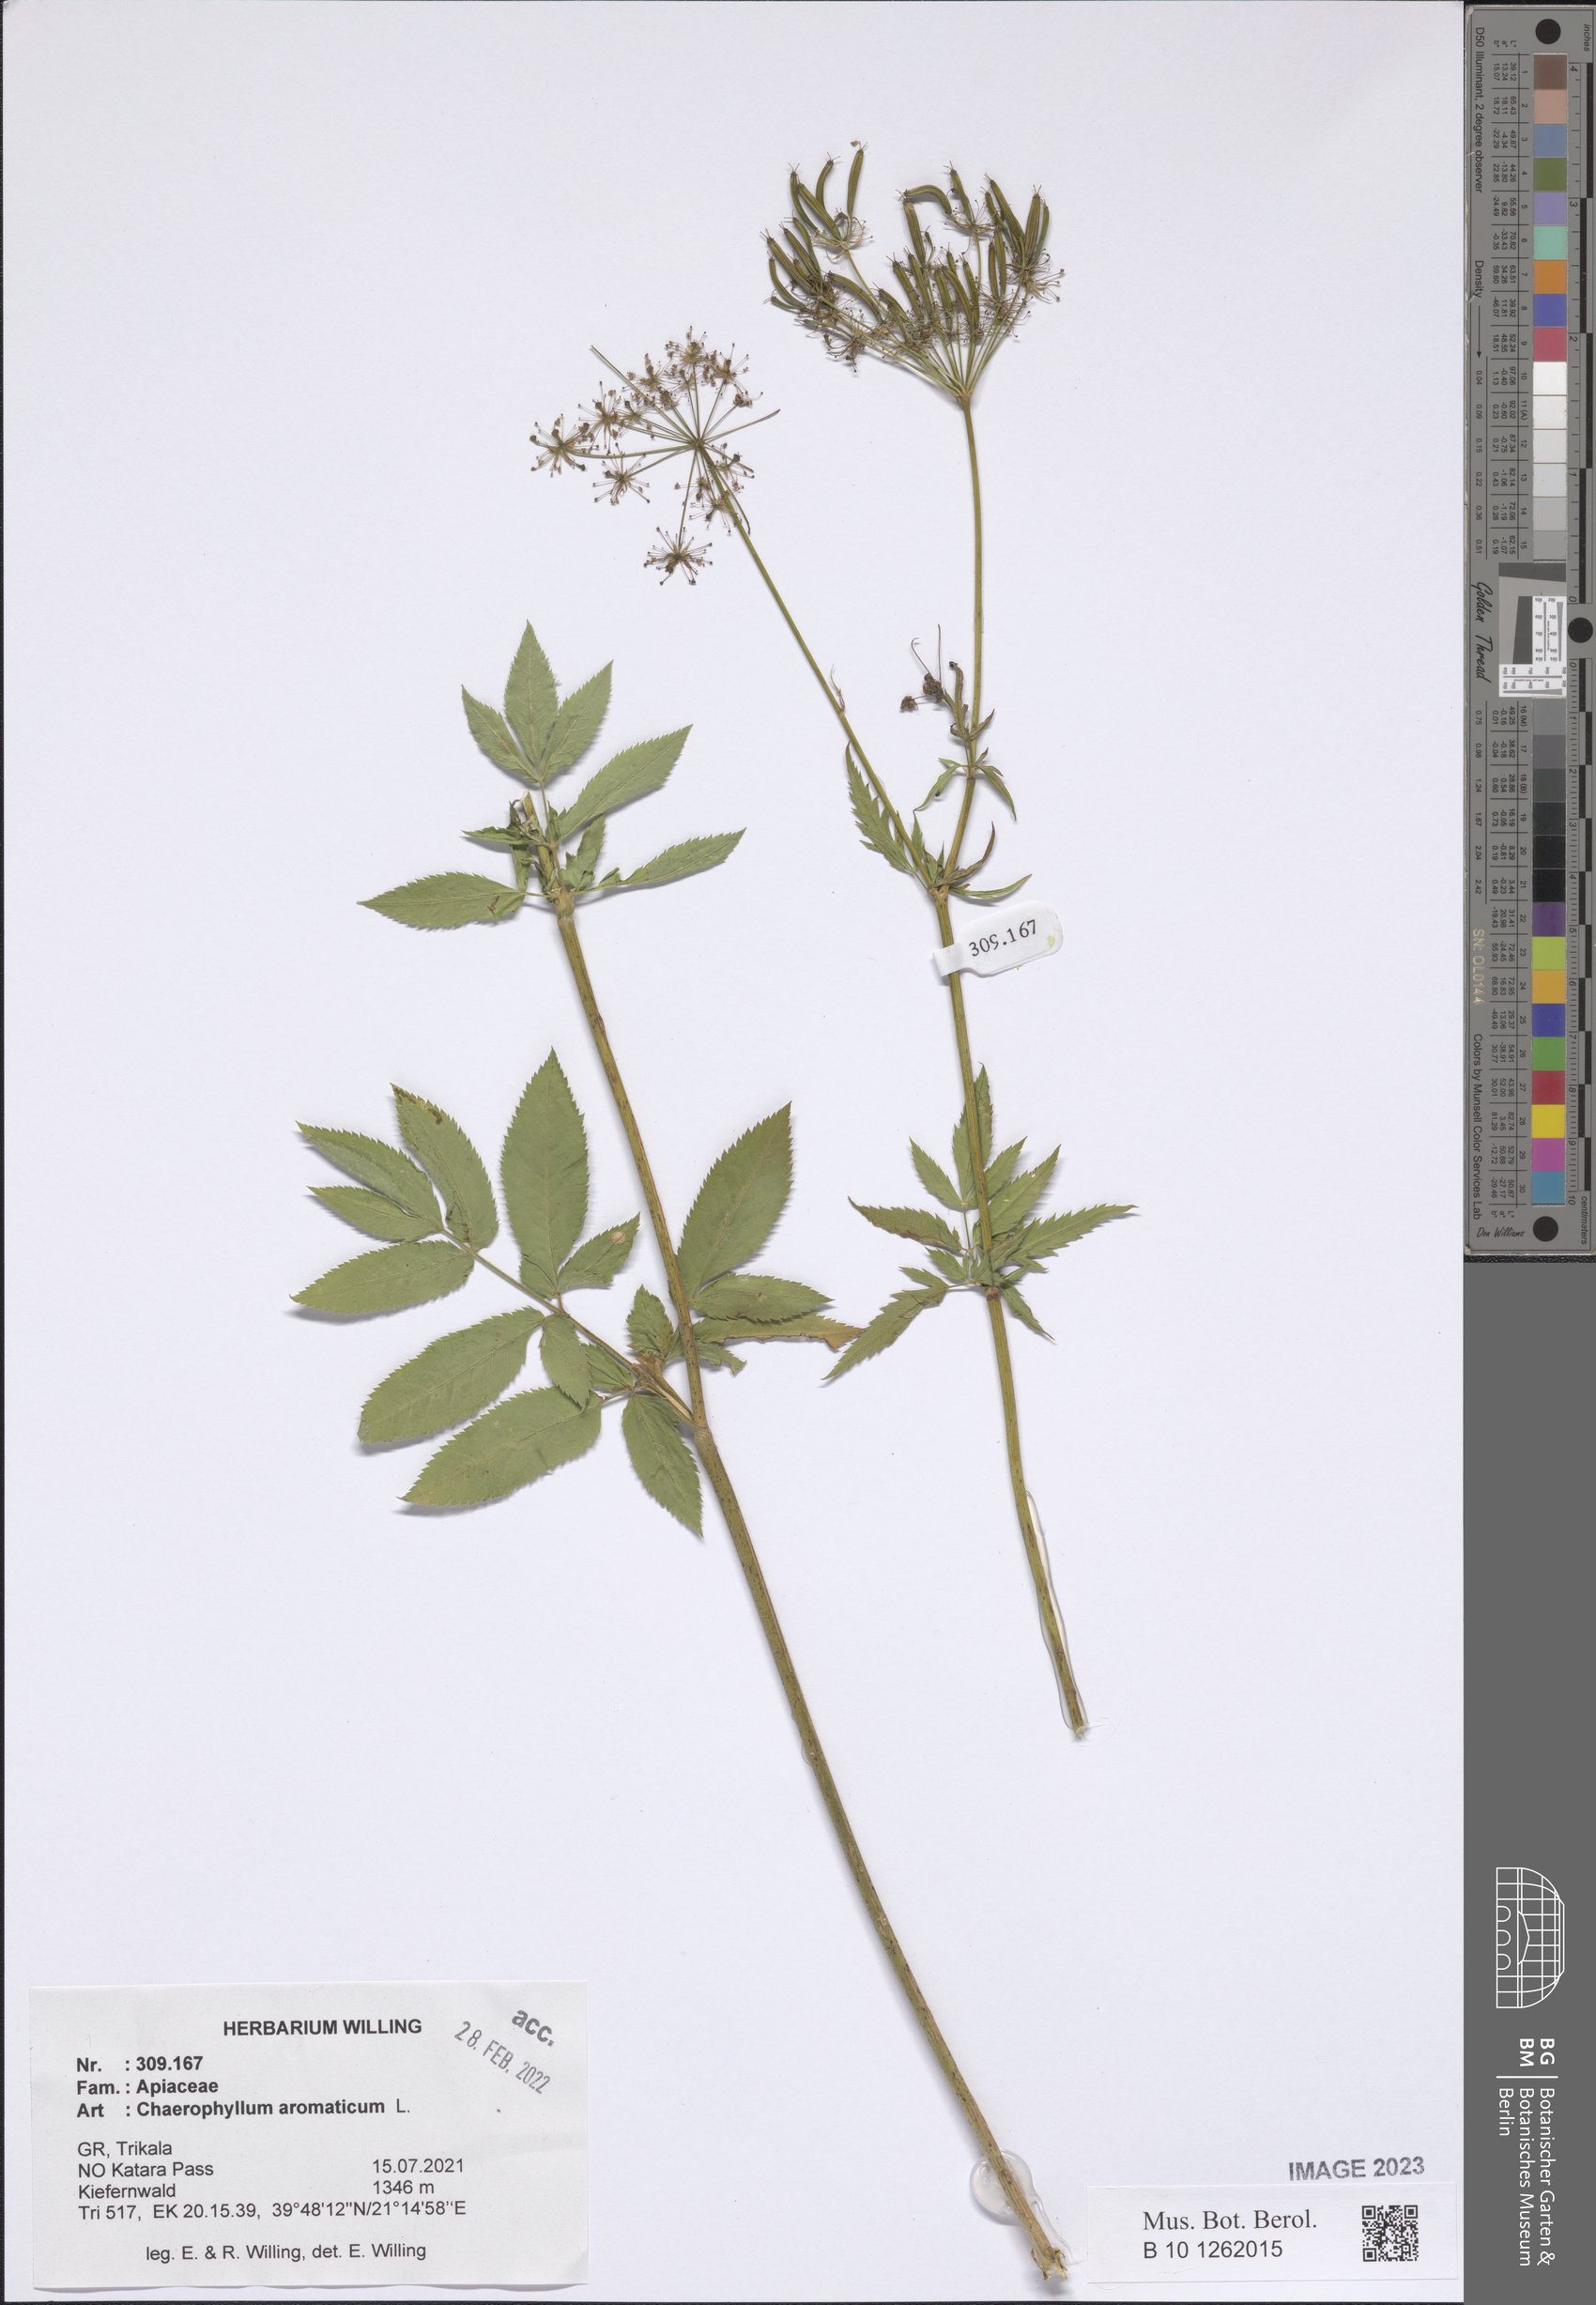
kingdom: Plantae
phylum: Tracheophyta
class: Magnoliopsida
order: Apiales
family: Apiaceae
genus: Chaerophyllum
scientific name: Chaerophyllum aromaticum
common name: Broadleaf chervil
